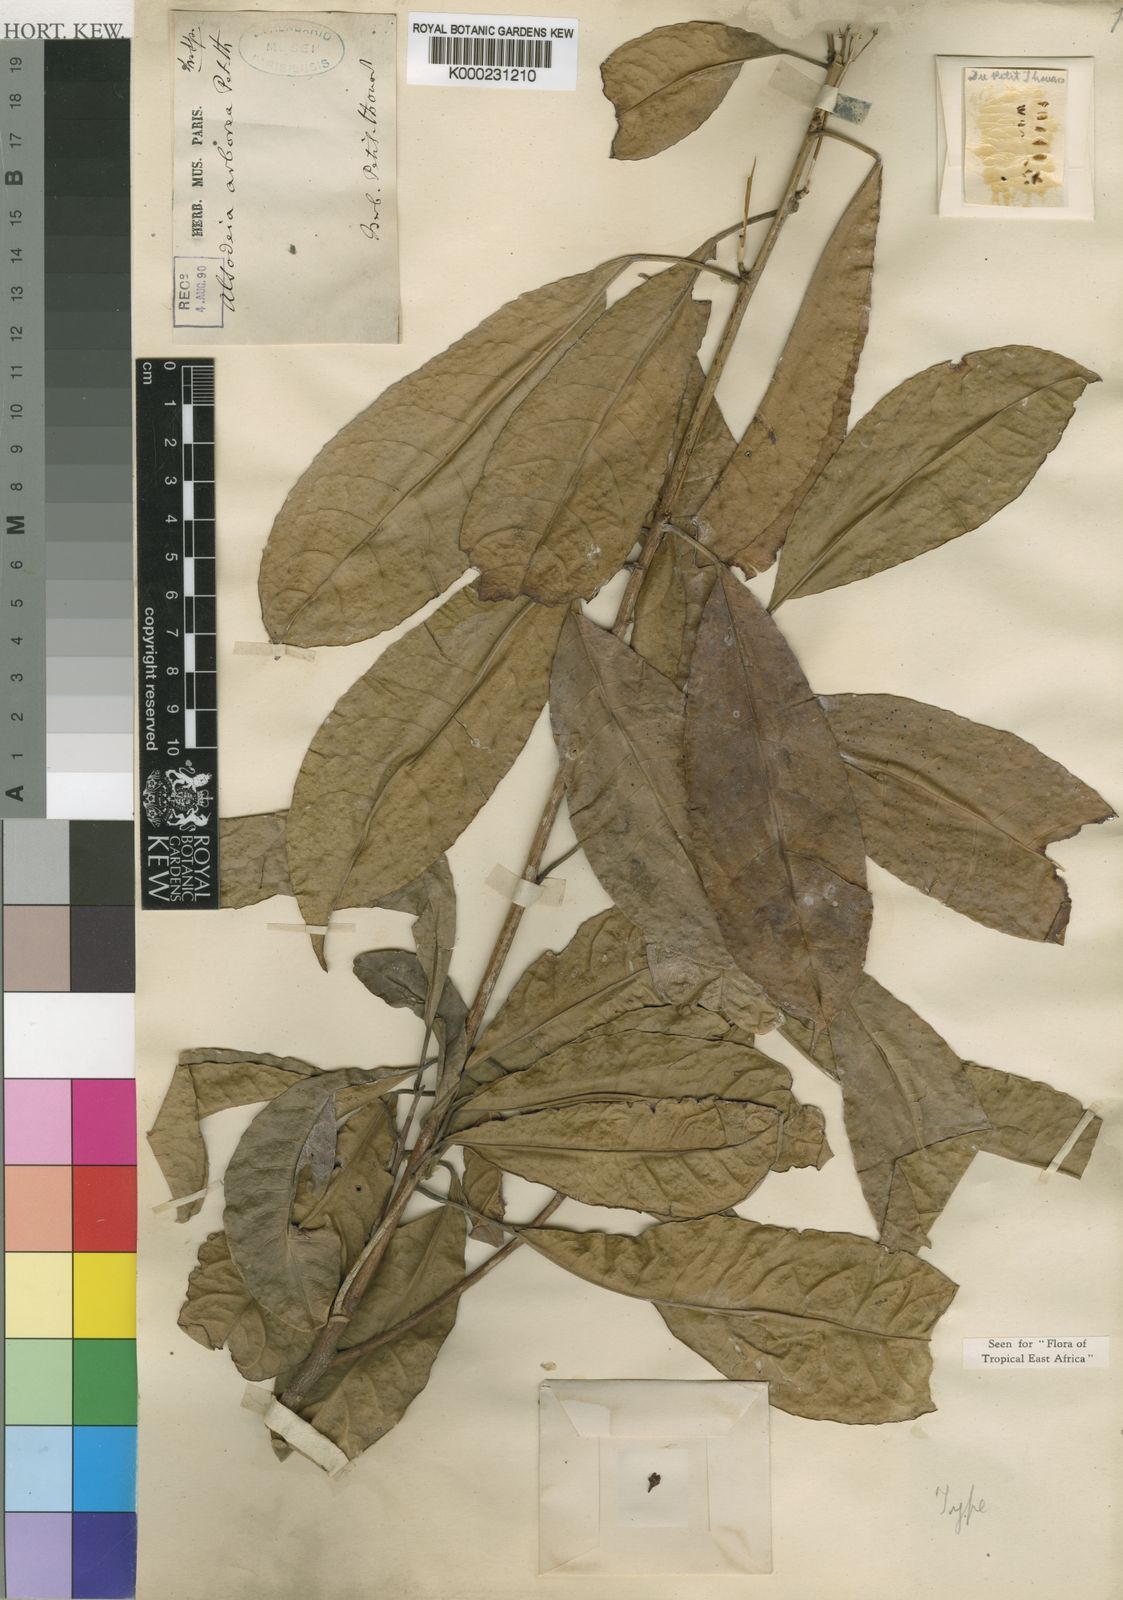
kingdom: Plantae
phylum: Tracheophyta
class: Magnoliopsida
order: Malpighiales
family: Violaceae
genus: Rinorea
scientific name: Rinorea arborea
